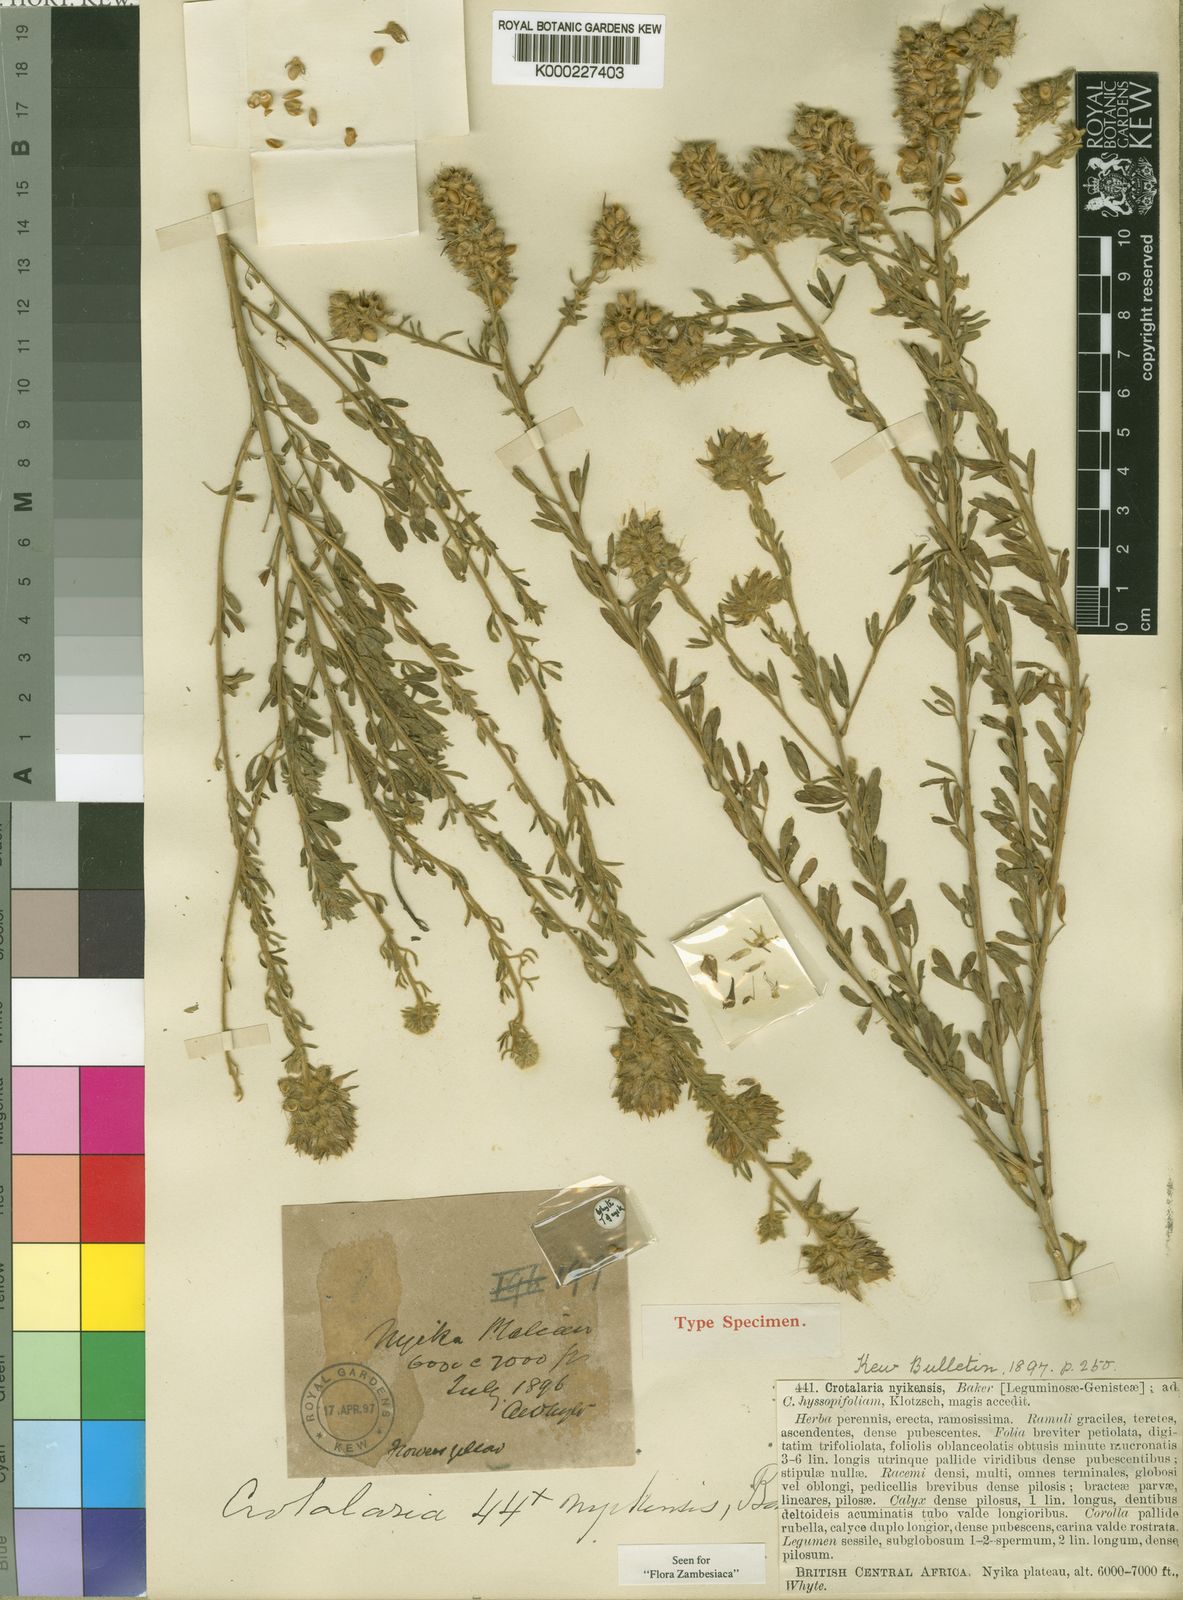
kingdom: Plantae
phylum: Tracheophyta
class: Magnoliopsida
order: Fabales
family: Fabaceae
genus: Crotalaria
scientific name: Crotalaria nyikensis
